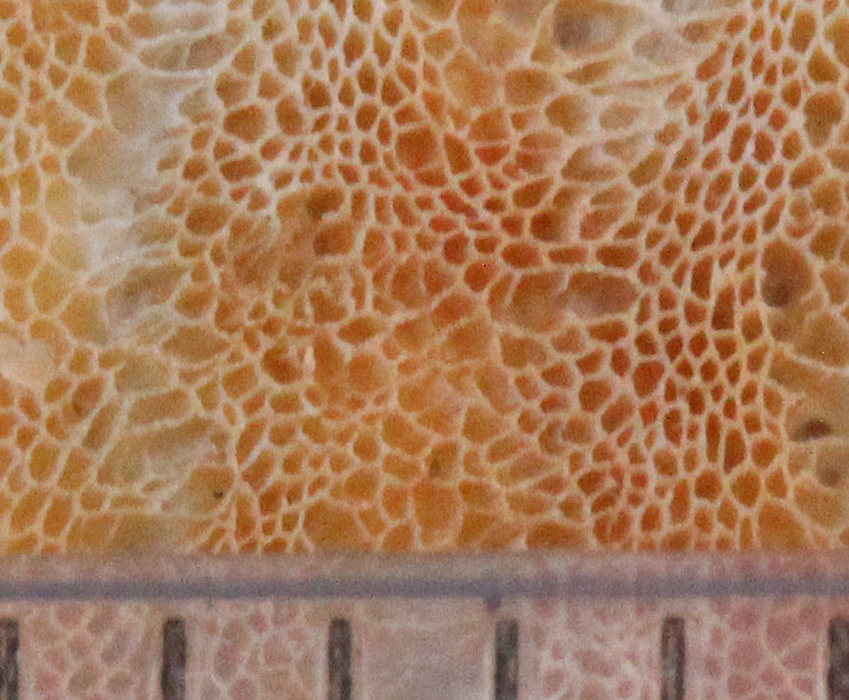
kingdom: Fungi
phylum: Basidiomycota
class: Agaricomycetes
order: Polyporales
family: Incrustoporiaceae
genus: Skeletocutis
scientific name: Skeletocutis amorpha
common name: orange krystalporesvamp
